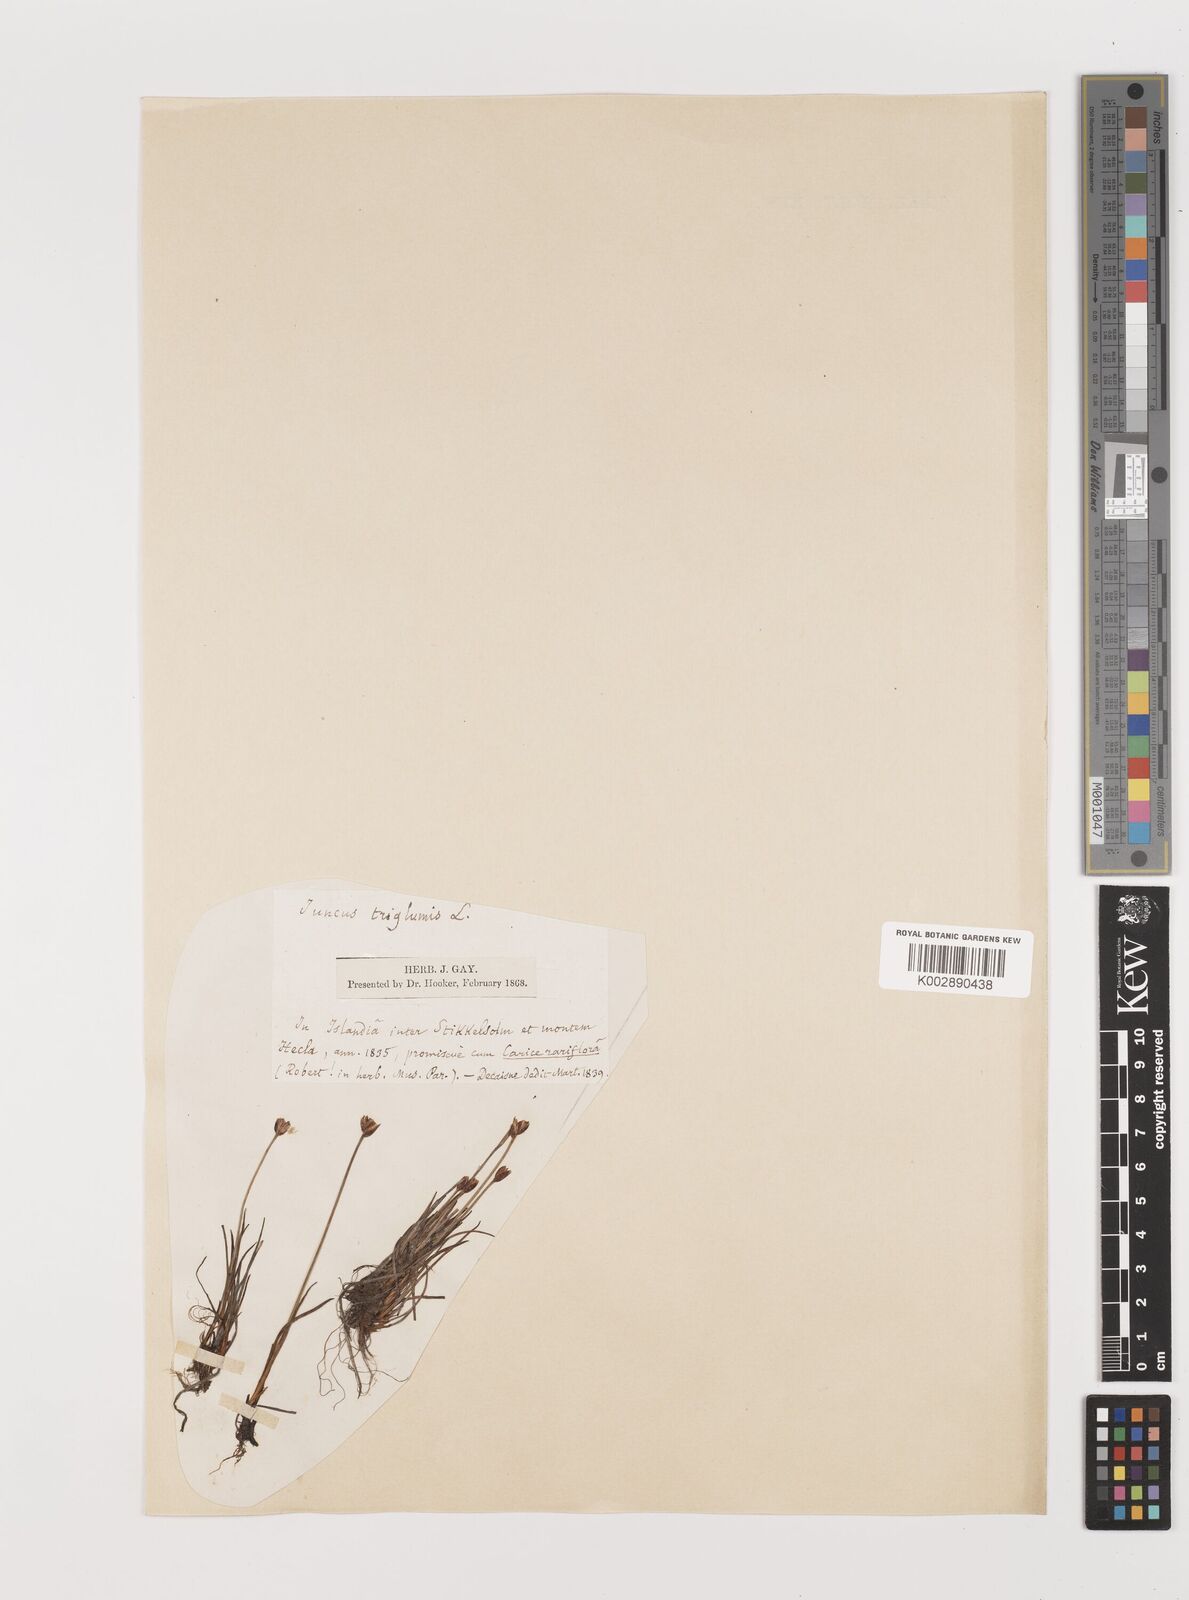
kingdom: Plantae
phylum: Tracheophyta
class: Liliopsida
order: Poales
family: Juncaceae
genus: Juncus
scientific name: Juncus triglumis
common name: Three-flowered rush
